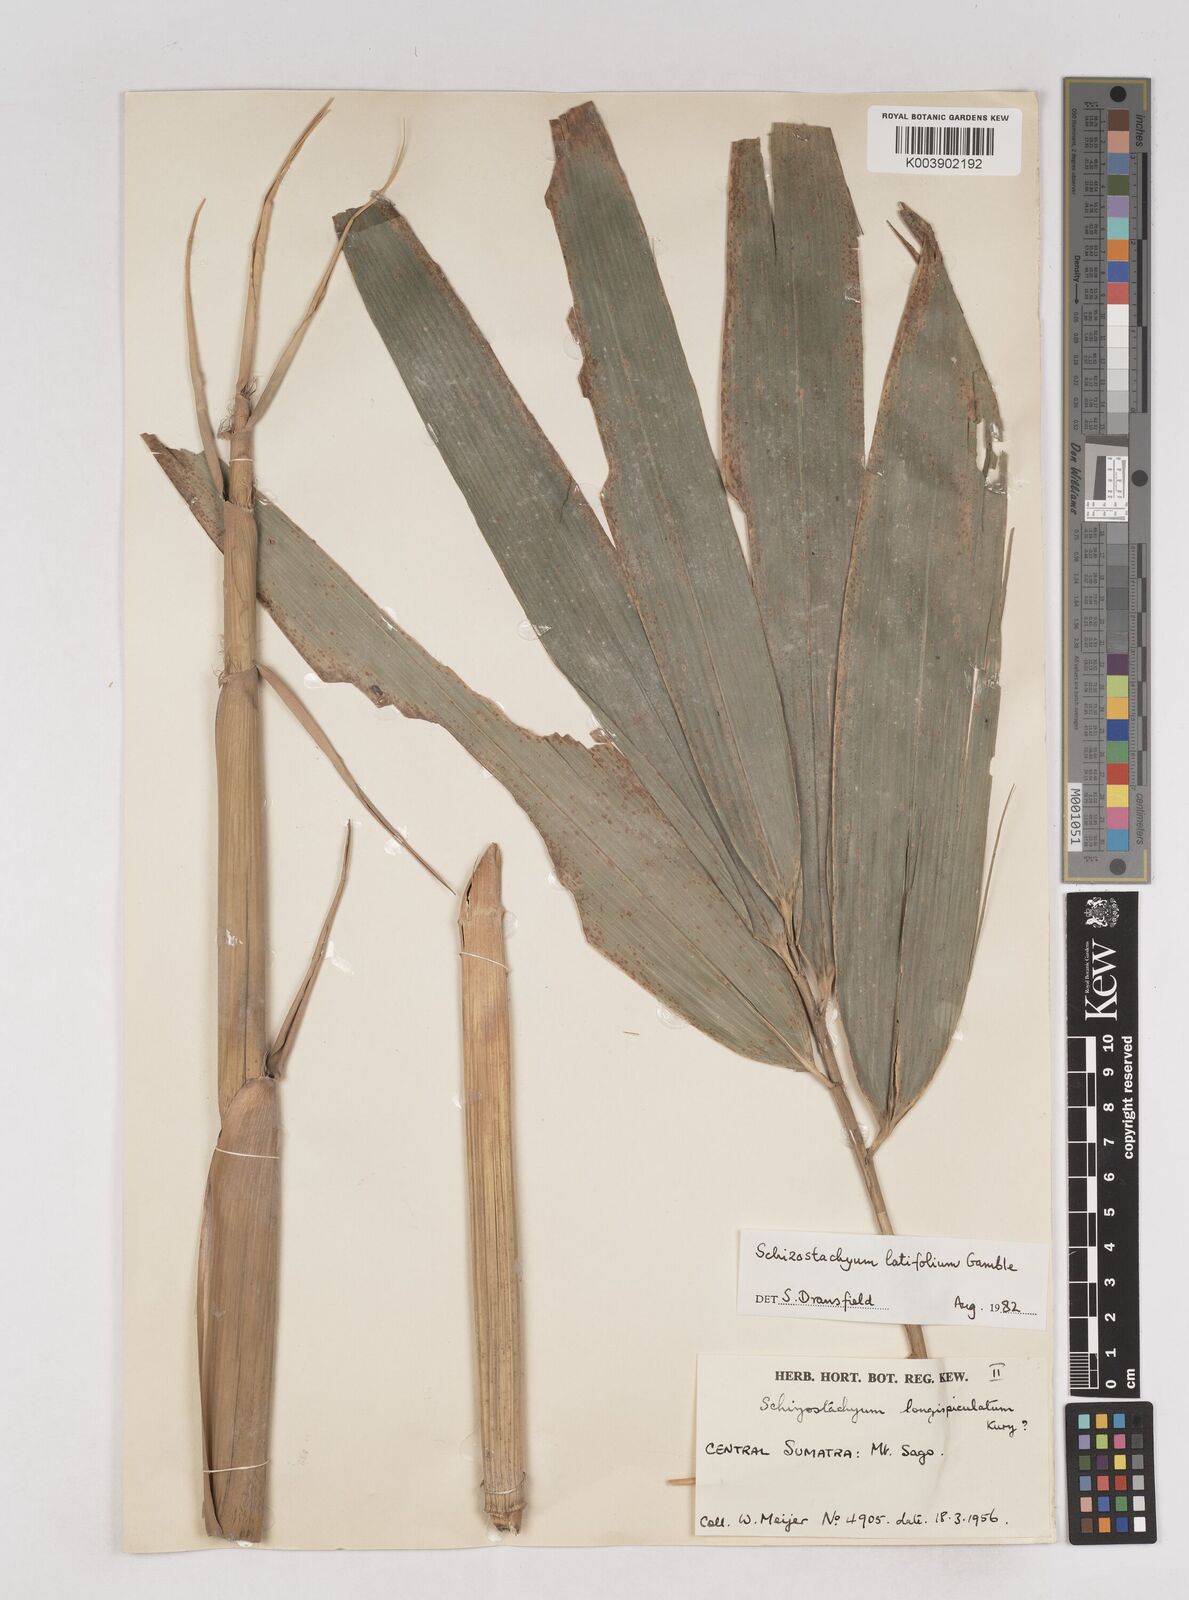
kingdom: Plantae
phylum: Tracheophyta
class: Liliopsida
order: Poales
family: Poaceae
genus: Schizostachyum
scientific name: Schizostachyum latifolium
